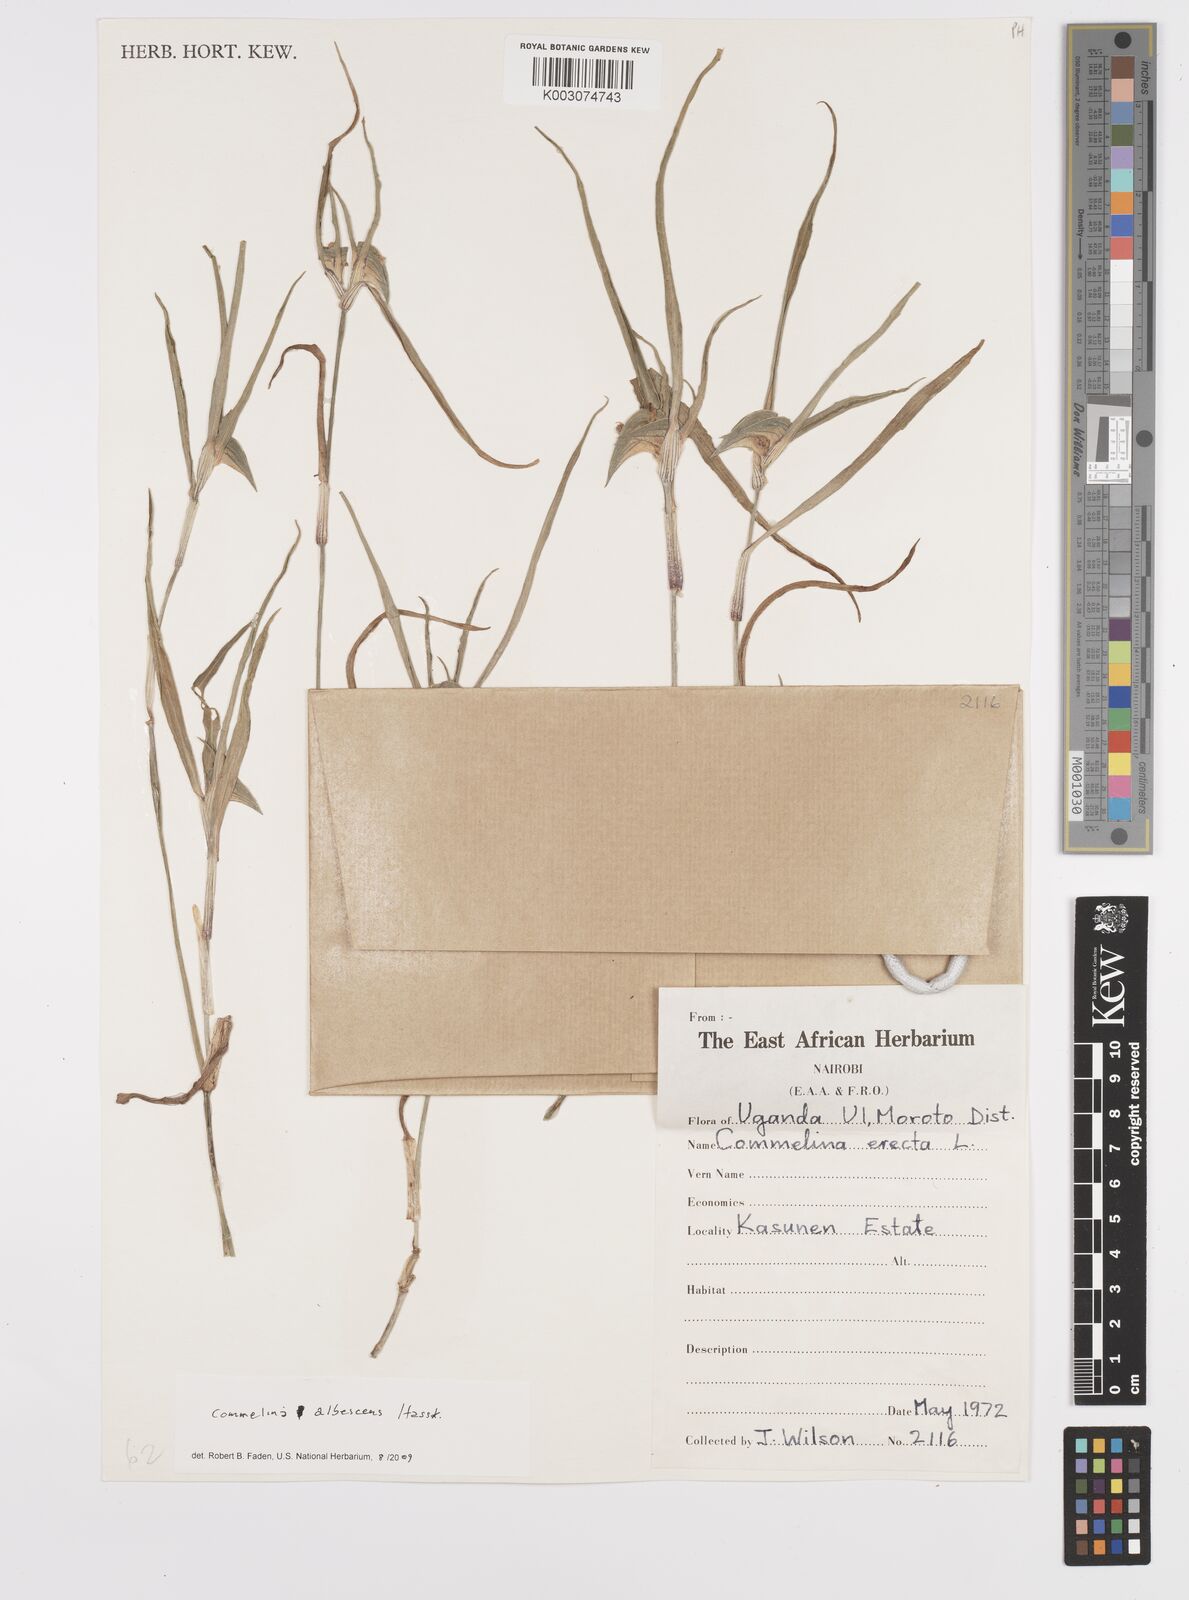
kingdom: Plantae
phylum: Tracheophyta
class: Liliopsida
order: Commelinales
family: Commelinaceae
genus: Commelina
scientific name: Commelina albescens
